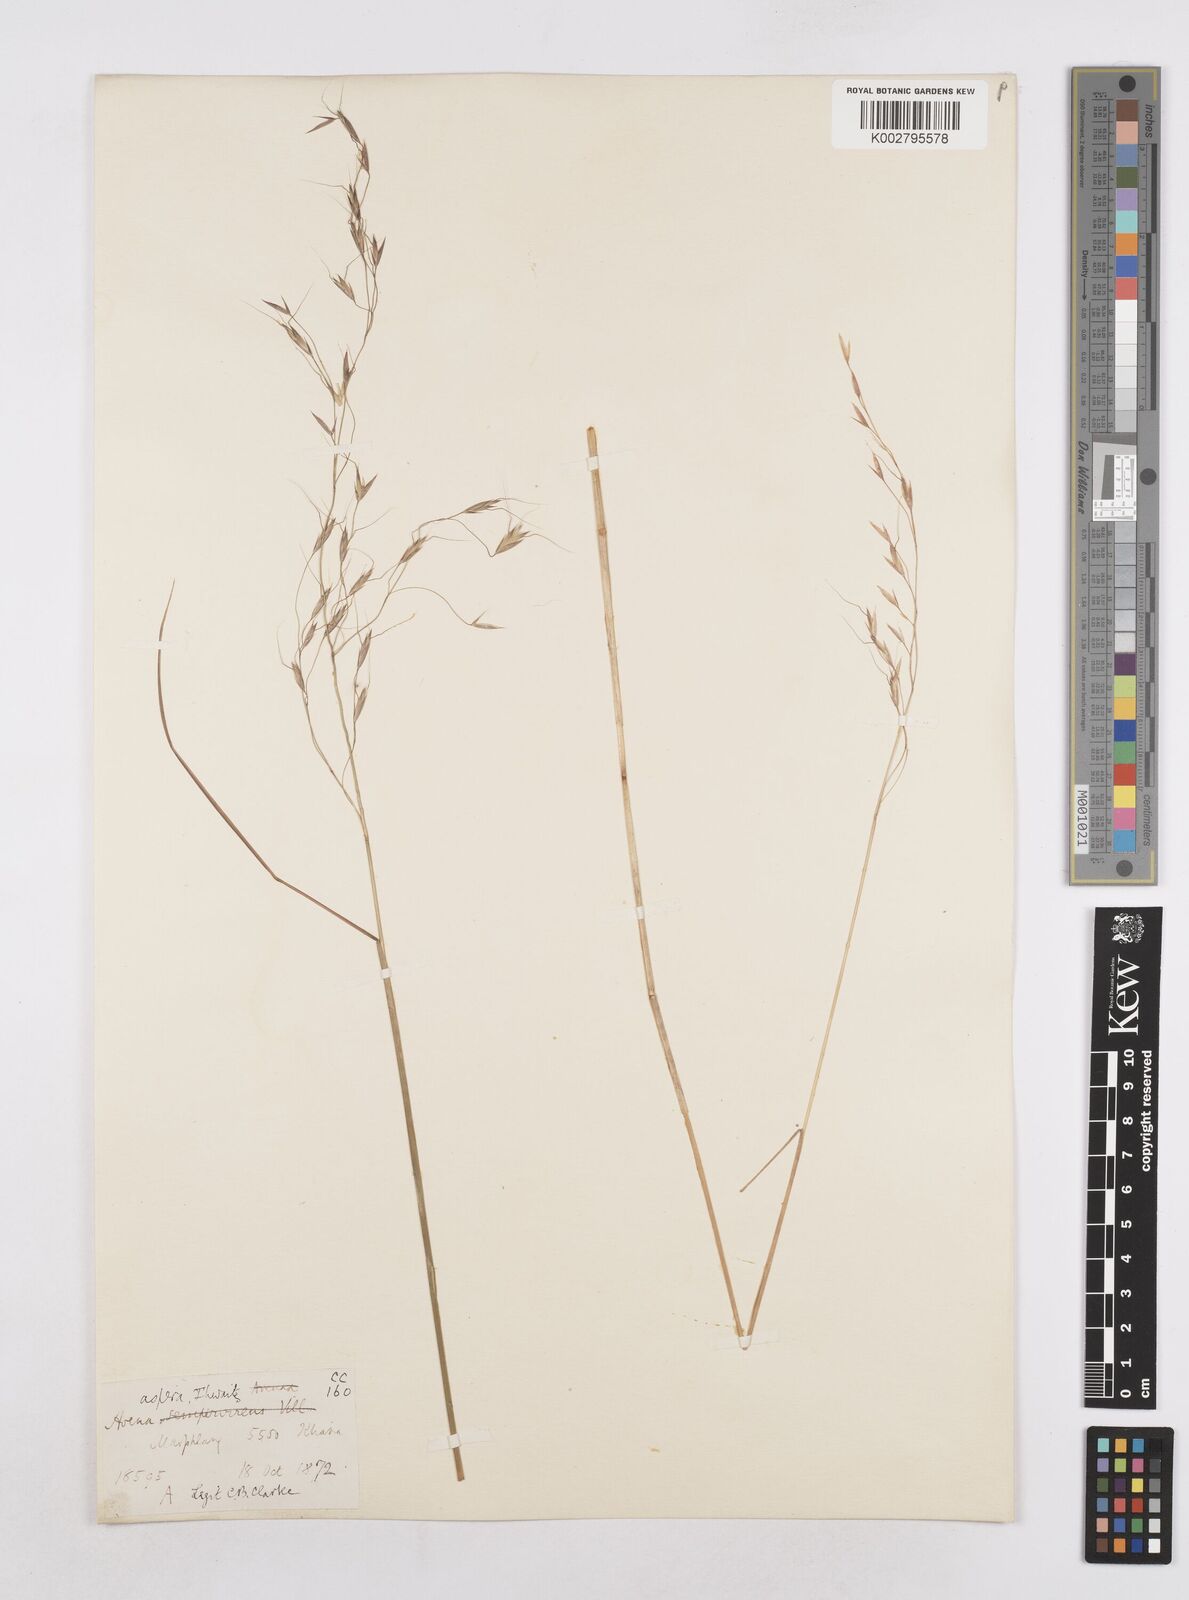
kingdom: Plantae
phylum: Tracheophyta
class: Liliopsida
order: Poales
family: Poaceae
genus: Trisetopsis
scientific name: Trisetopsis junghuhnii
